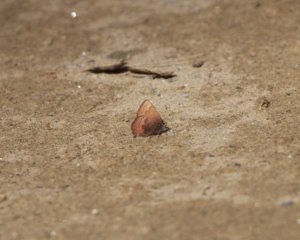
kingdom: Animalia
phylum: Arthropoda
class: Insecta
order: Lepidoptera
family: Lycaenidae
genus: Incisalia
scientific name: Incisalia irioides
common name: Brown Elfin
